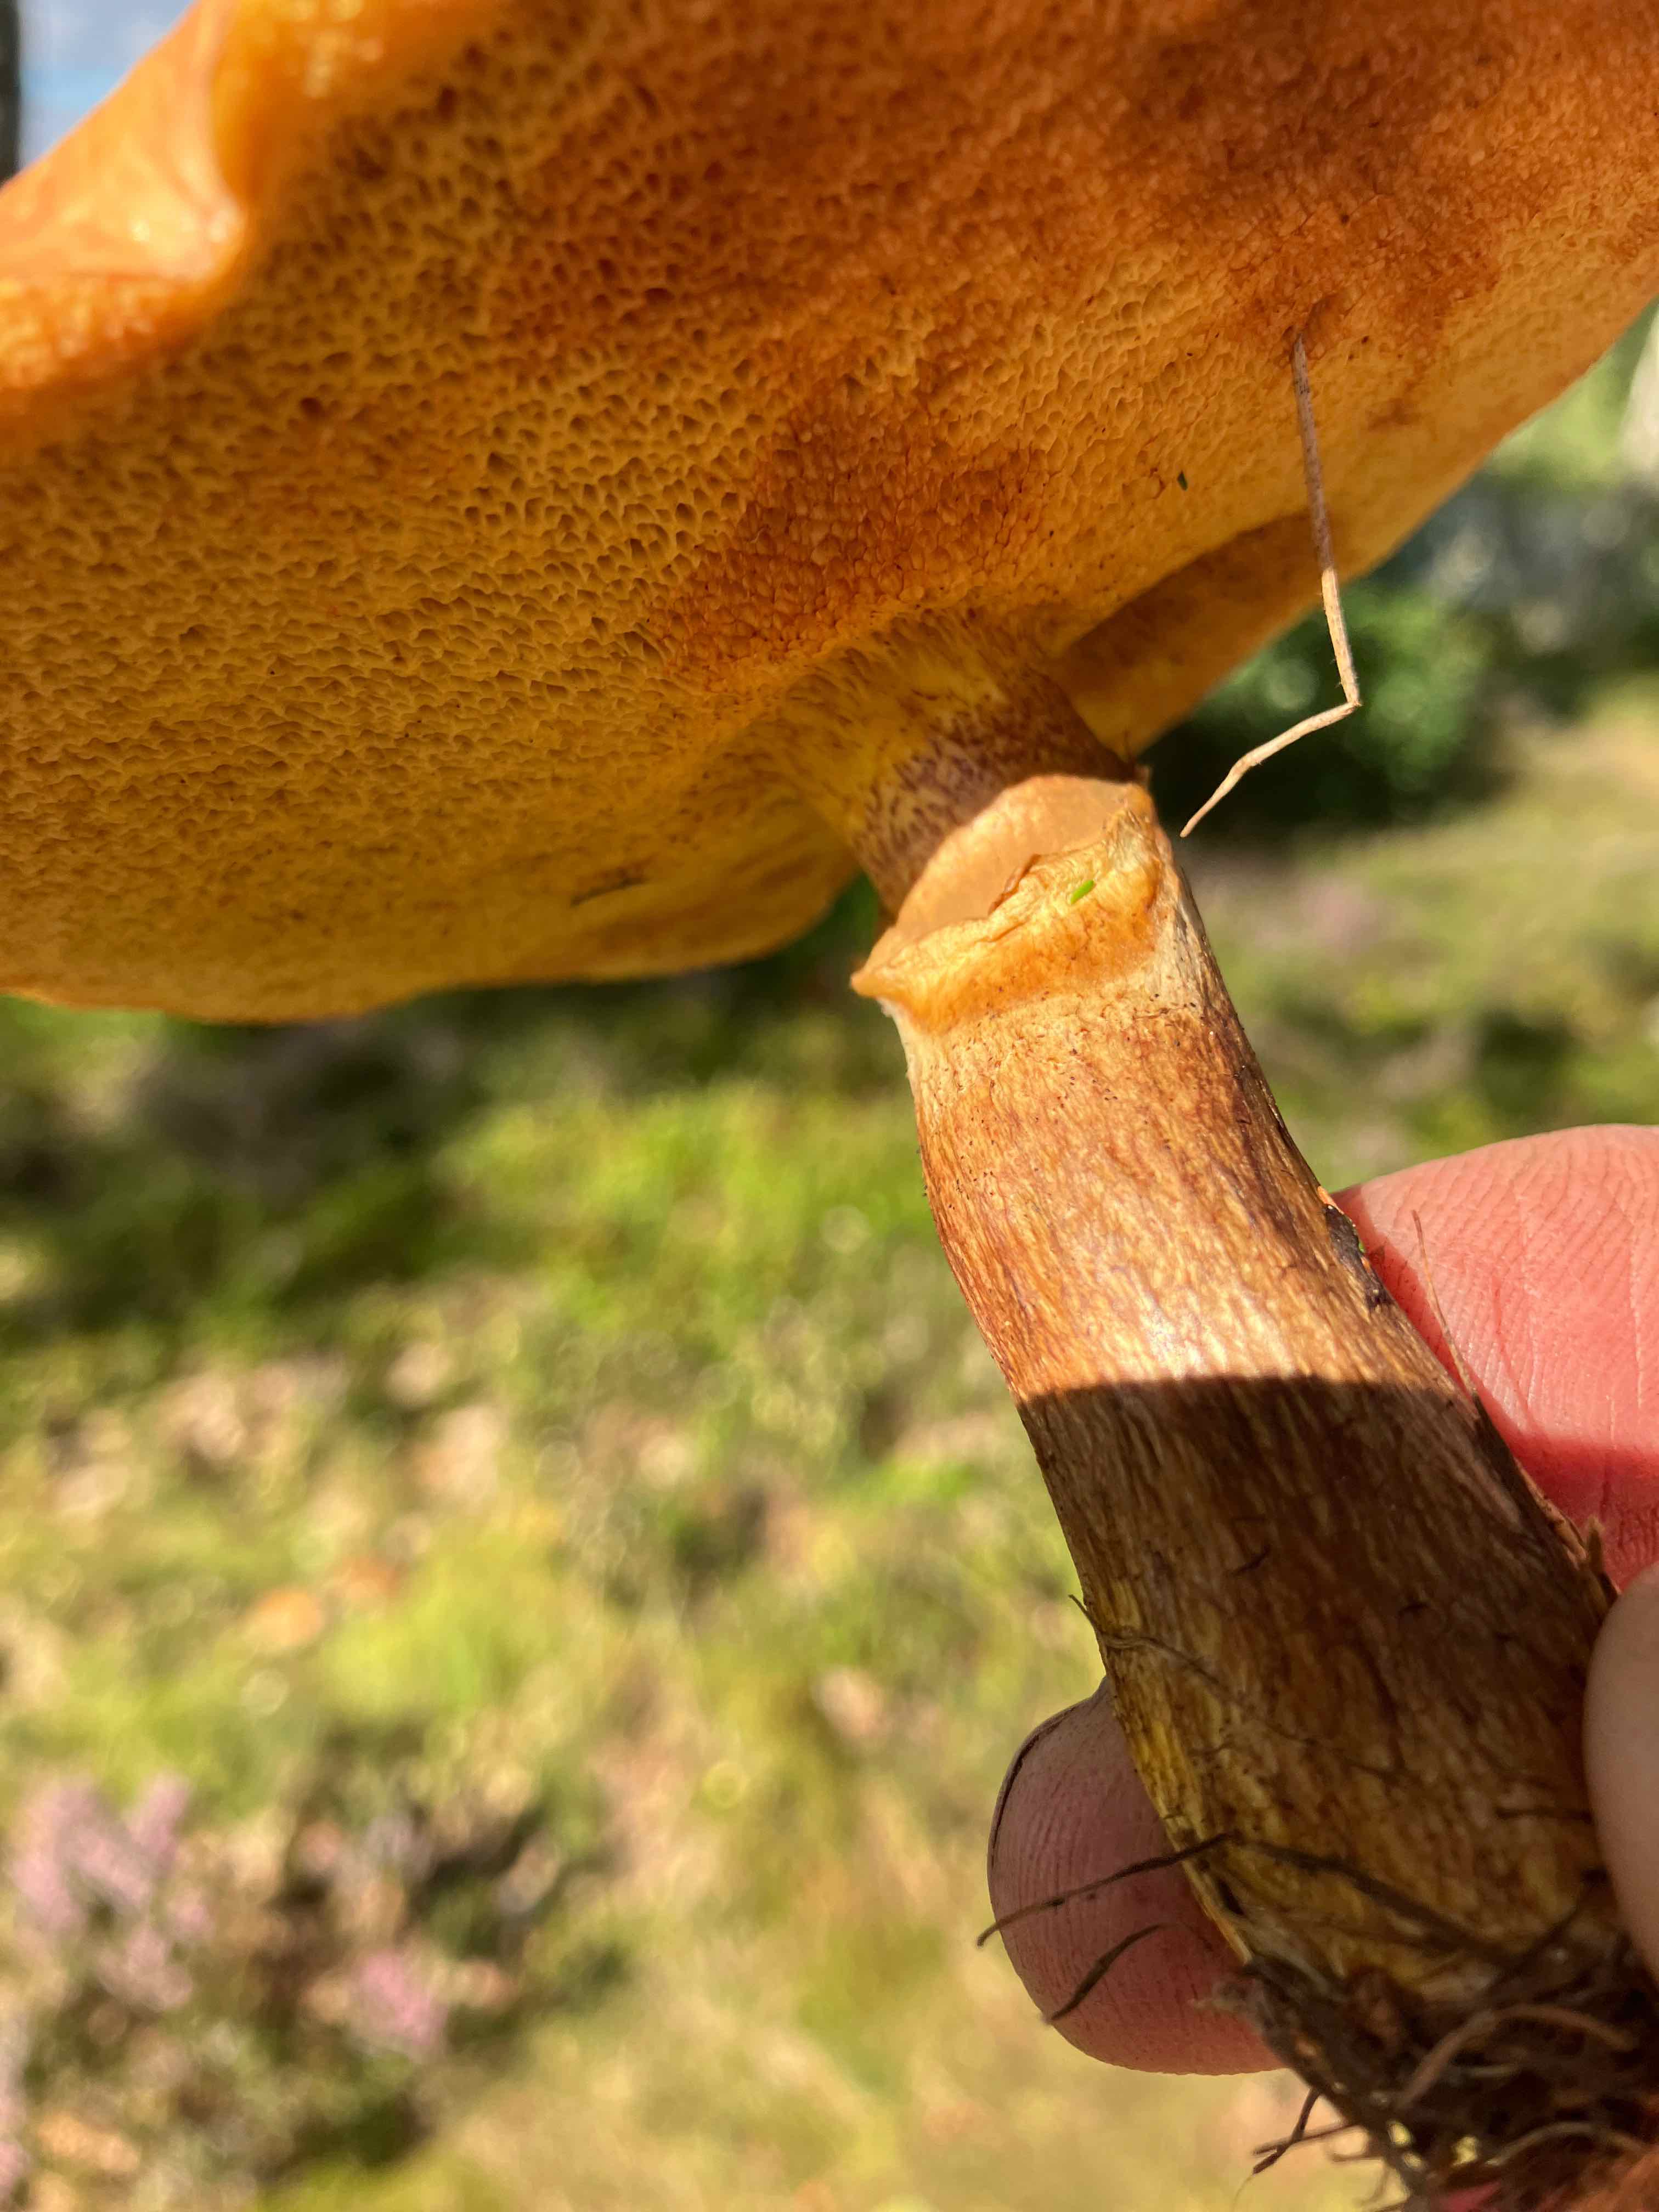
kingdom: Fungi
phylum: Basidiomycota
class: Agaricomycetes
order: Boletales
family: Suillaceae
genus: Suillus
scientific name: Suillus grevillei
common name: lærke-slimrørhat
